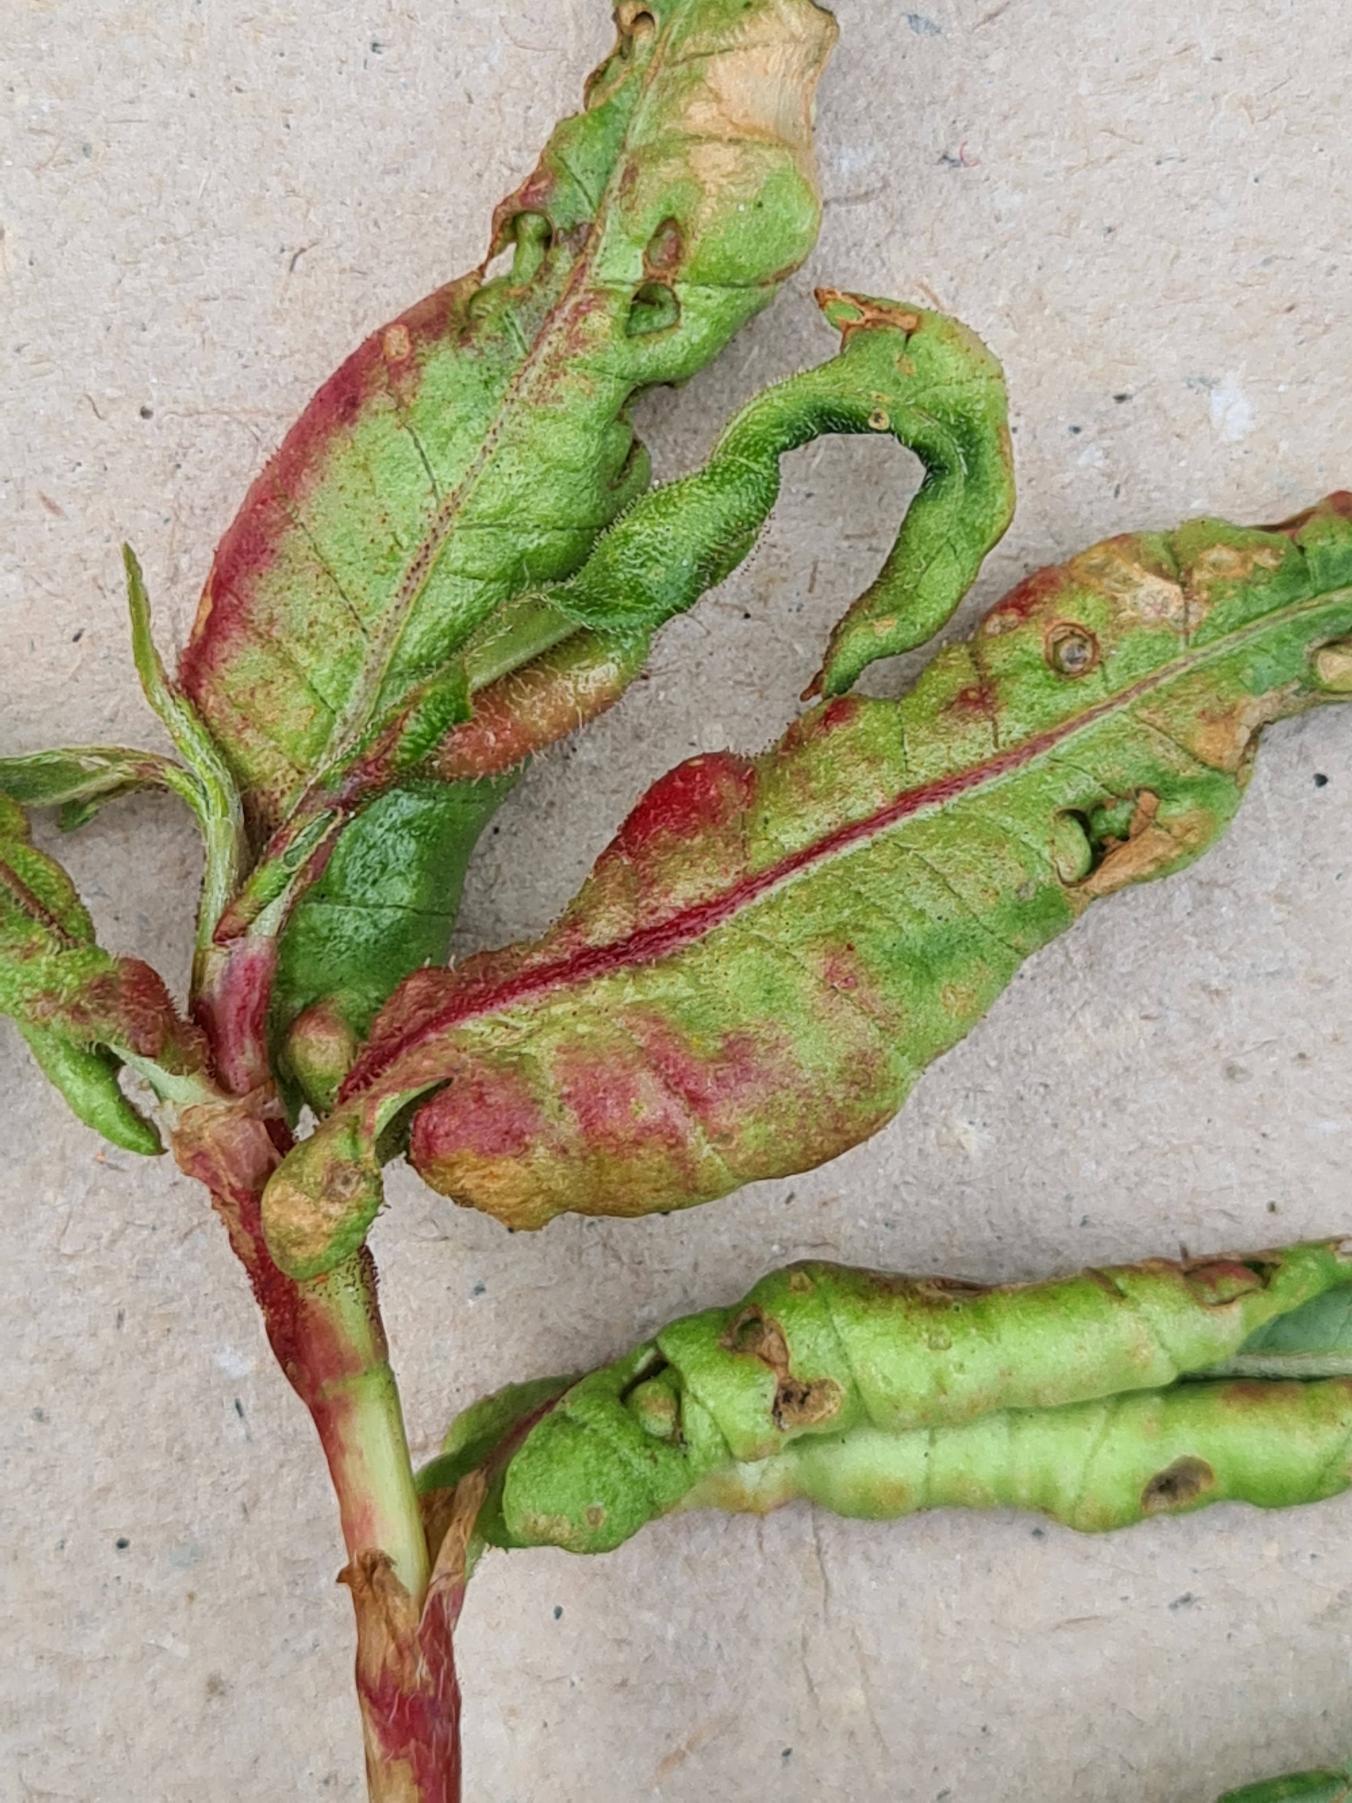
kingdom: Animalia
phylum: Arthropoda
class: Insecta
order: Diptera
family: Cecidomyiidae
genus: Wachtliella
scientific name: Wachtliella persicariae
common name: Pileurtgalmyg
